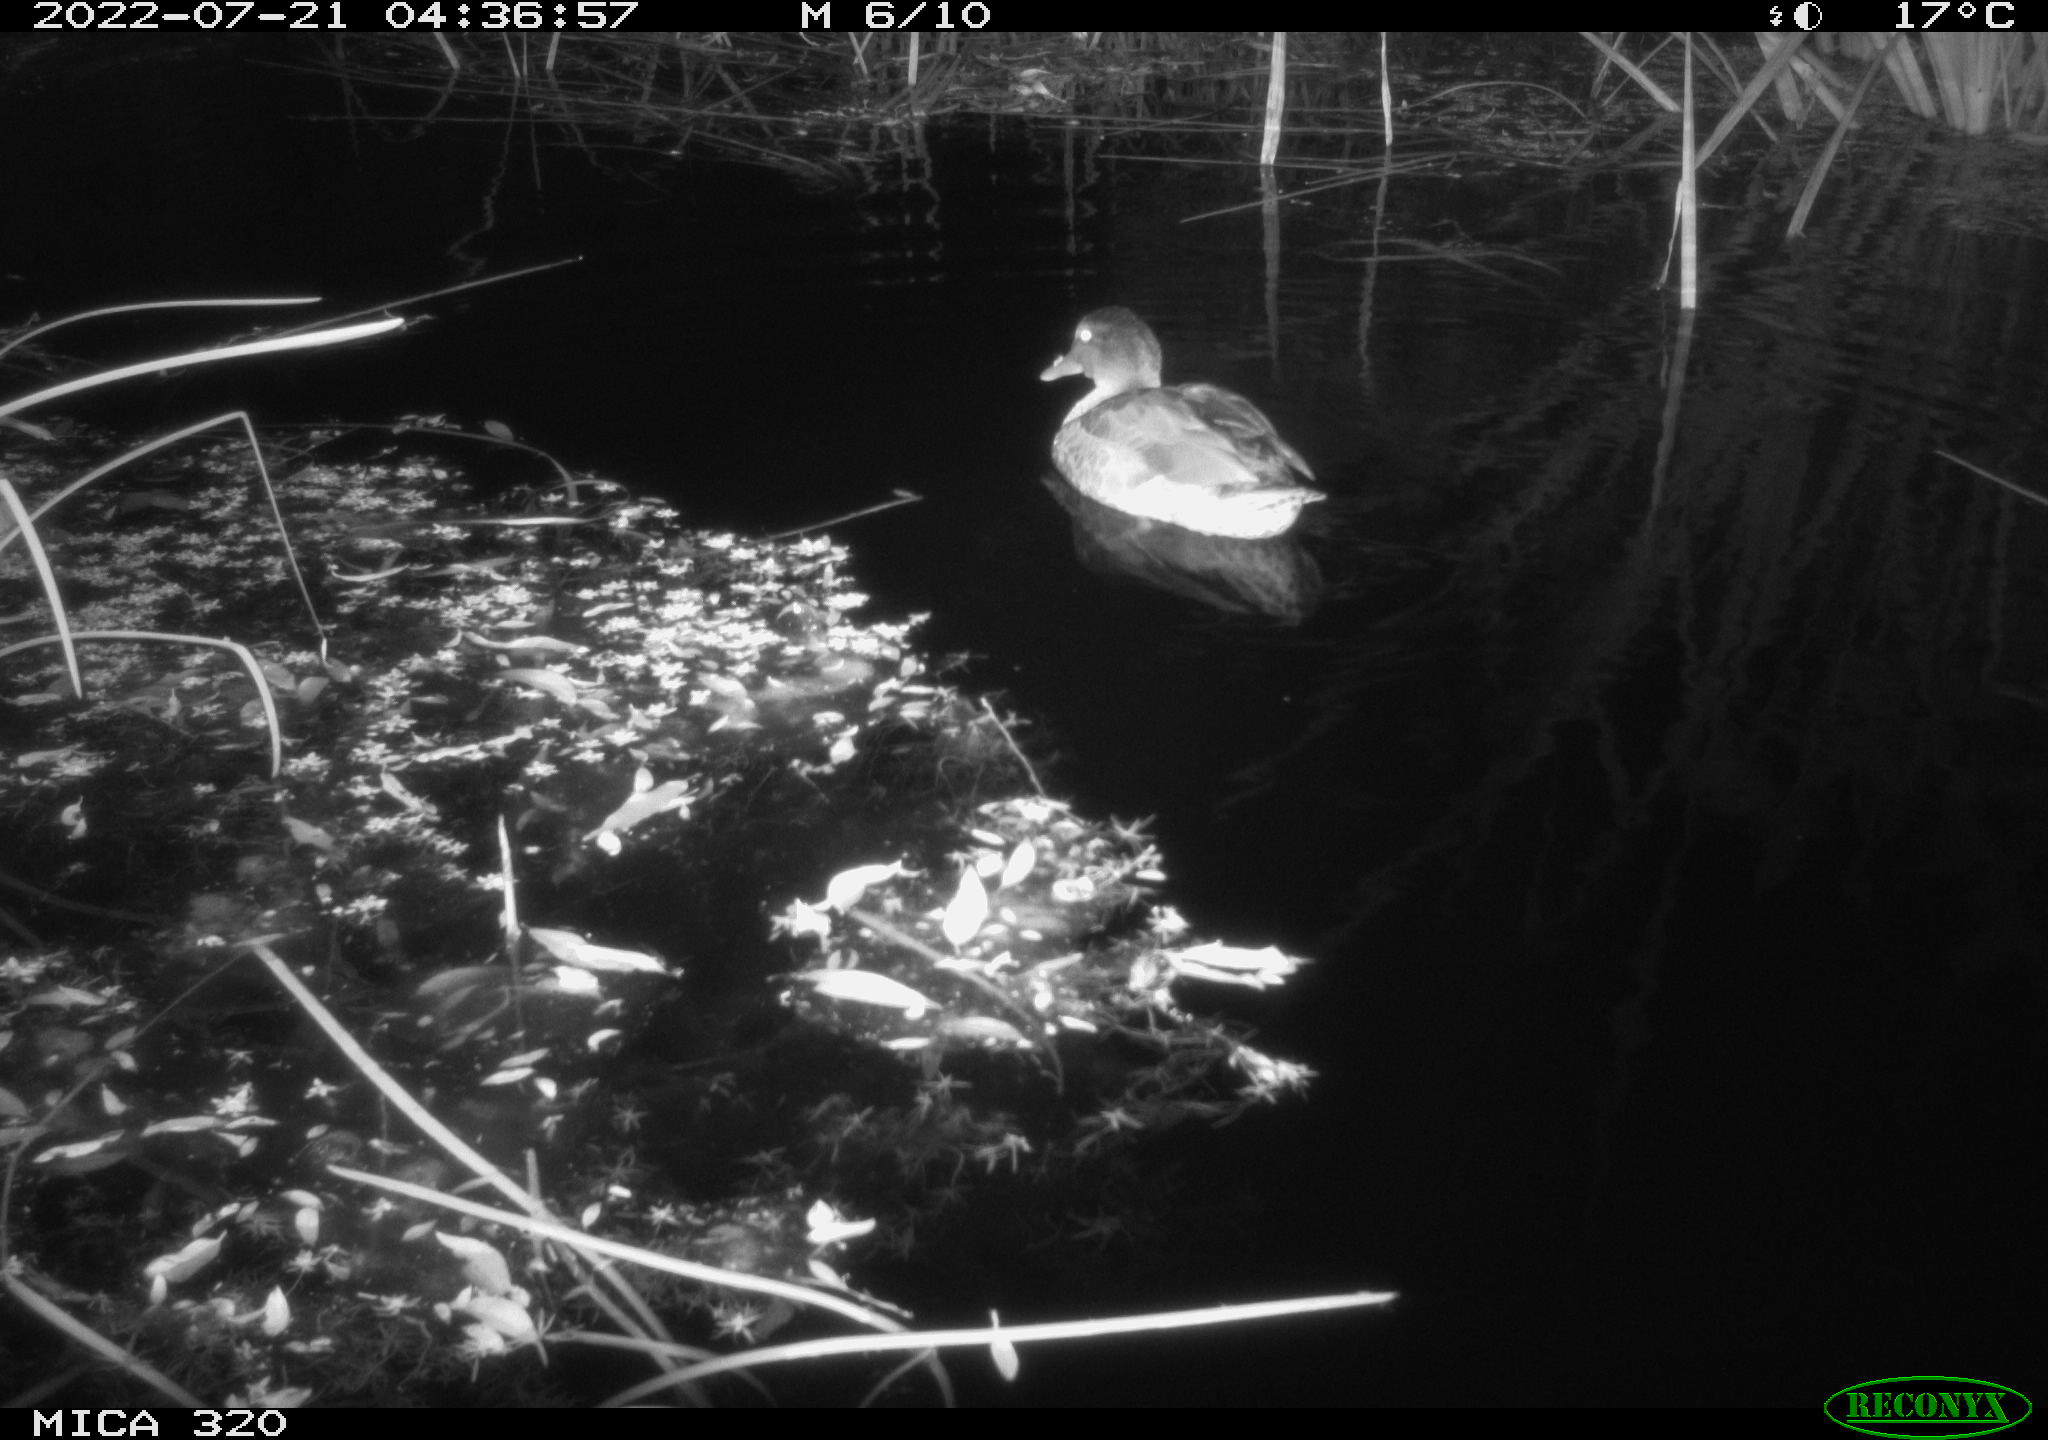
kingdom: Animalia
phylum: Chordata
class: Aves
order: Anseriformes
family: Anatidae
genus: Anas
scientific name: Anas platyrhynchos
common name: Mallard
